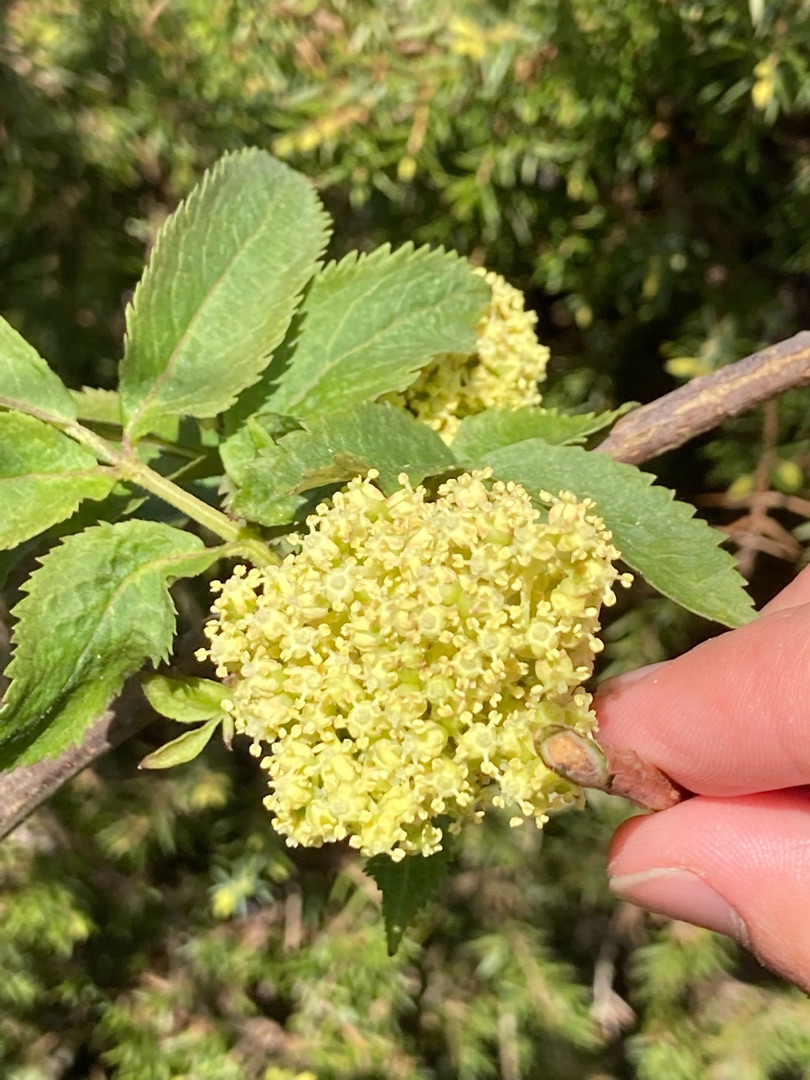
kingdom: Plantae
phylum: Tracheophyta
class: Magnoliopsida
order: Dipsacales
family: Viburnaceae
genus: Sambucus
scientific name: Sambucus racemosa
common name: Drue-hyld
